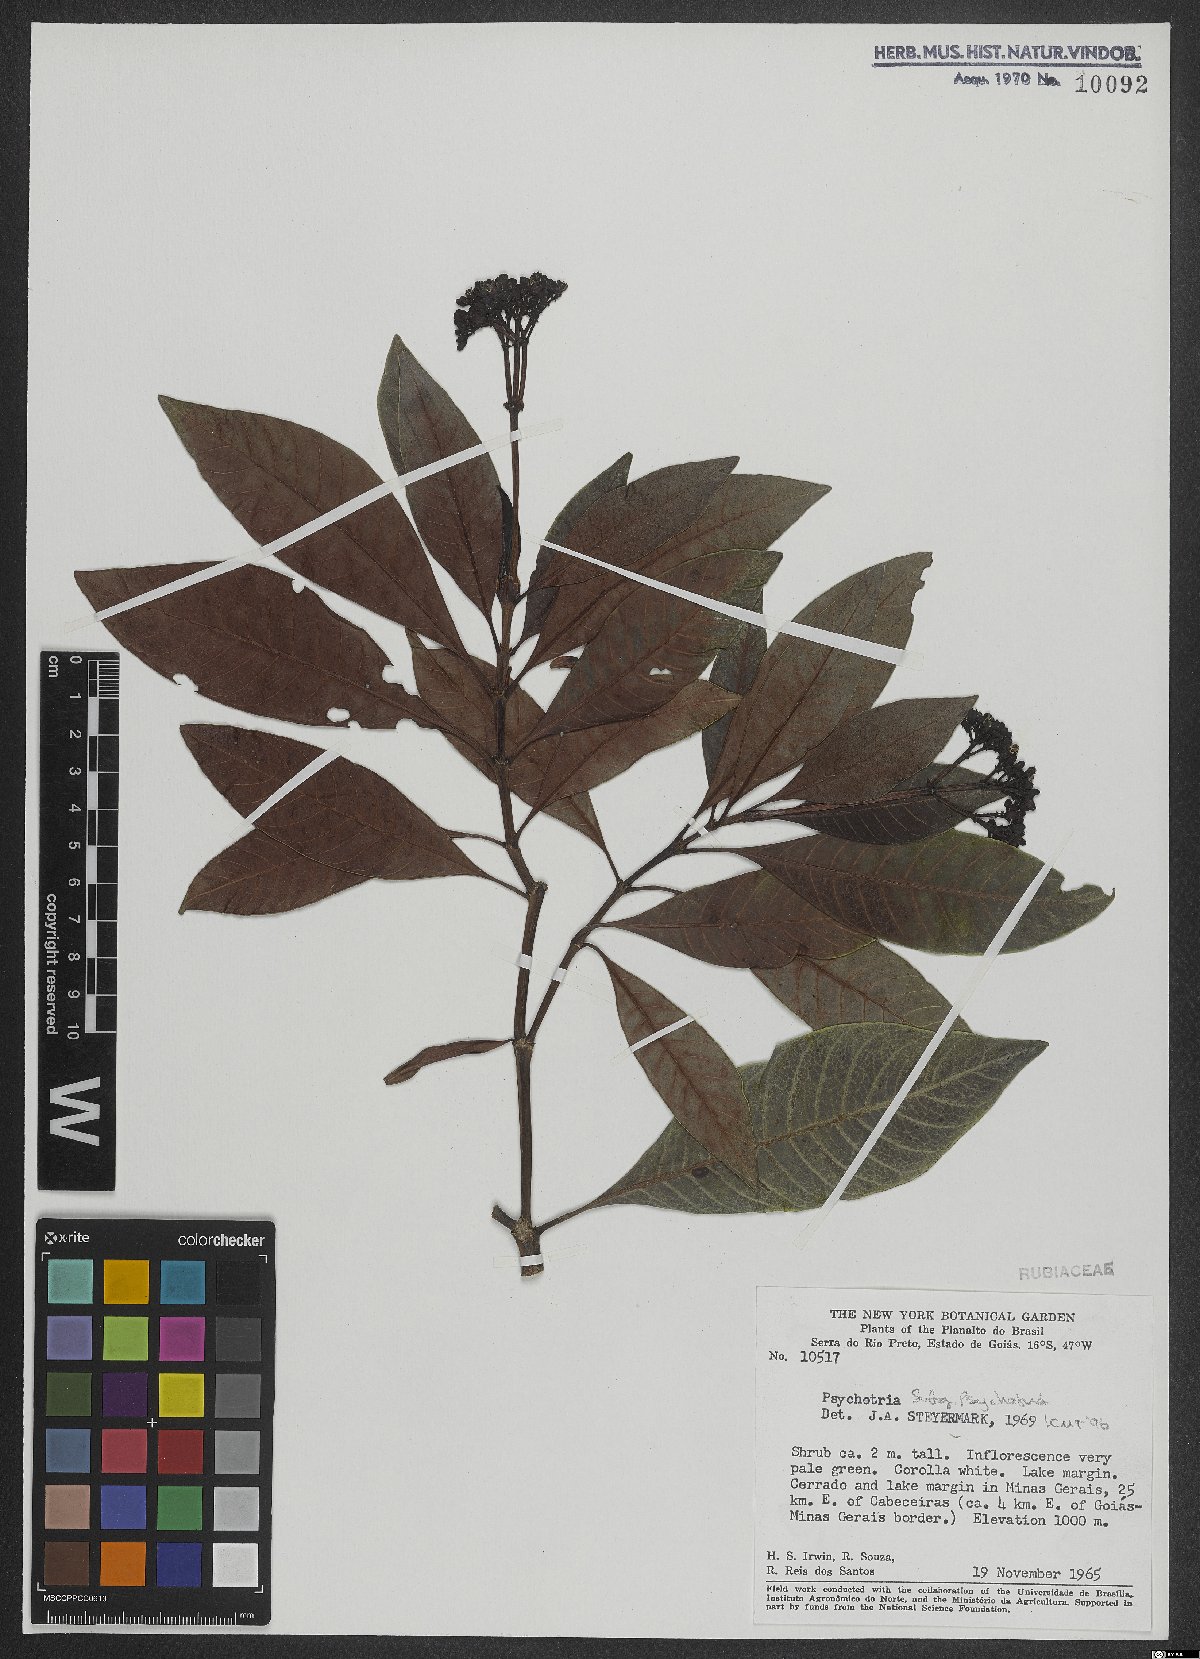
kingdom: Plantae
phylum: Tracheophyta
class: Magnoliopsida
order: Gentianales
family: Rubiaceae
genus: Psychotria
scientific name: Psychotria
